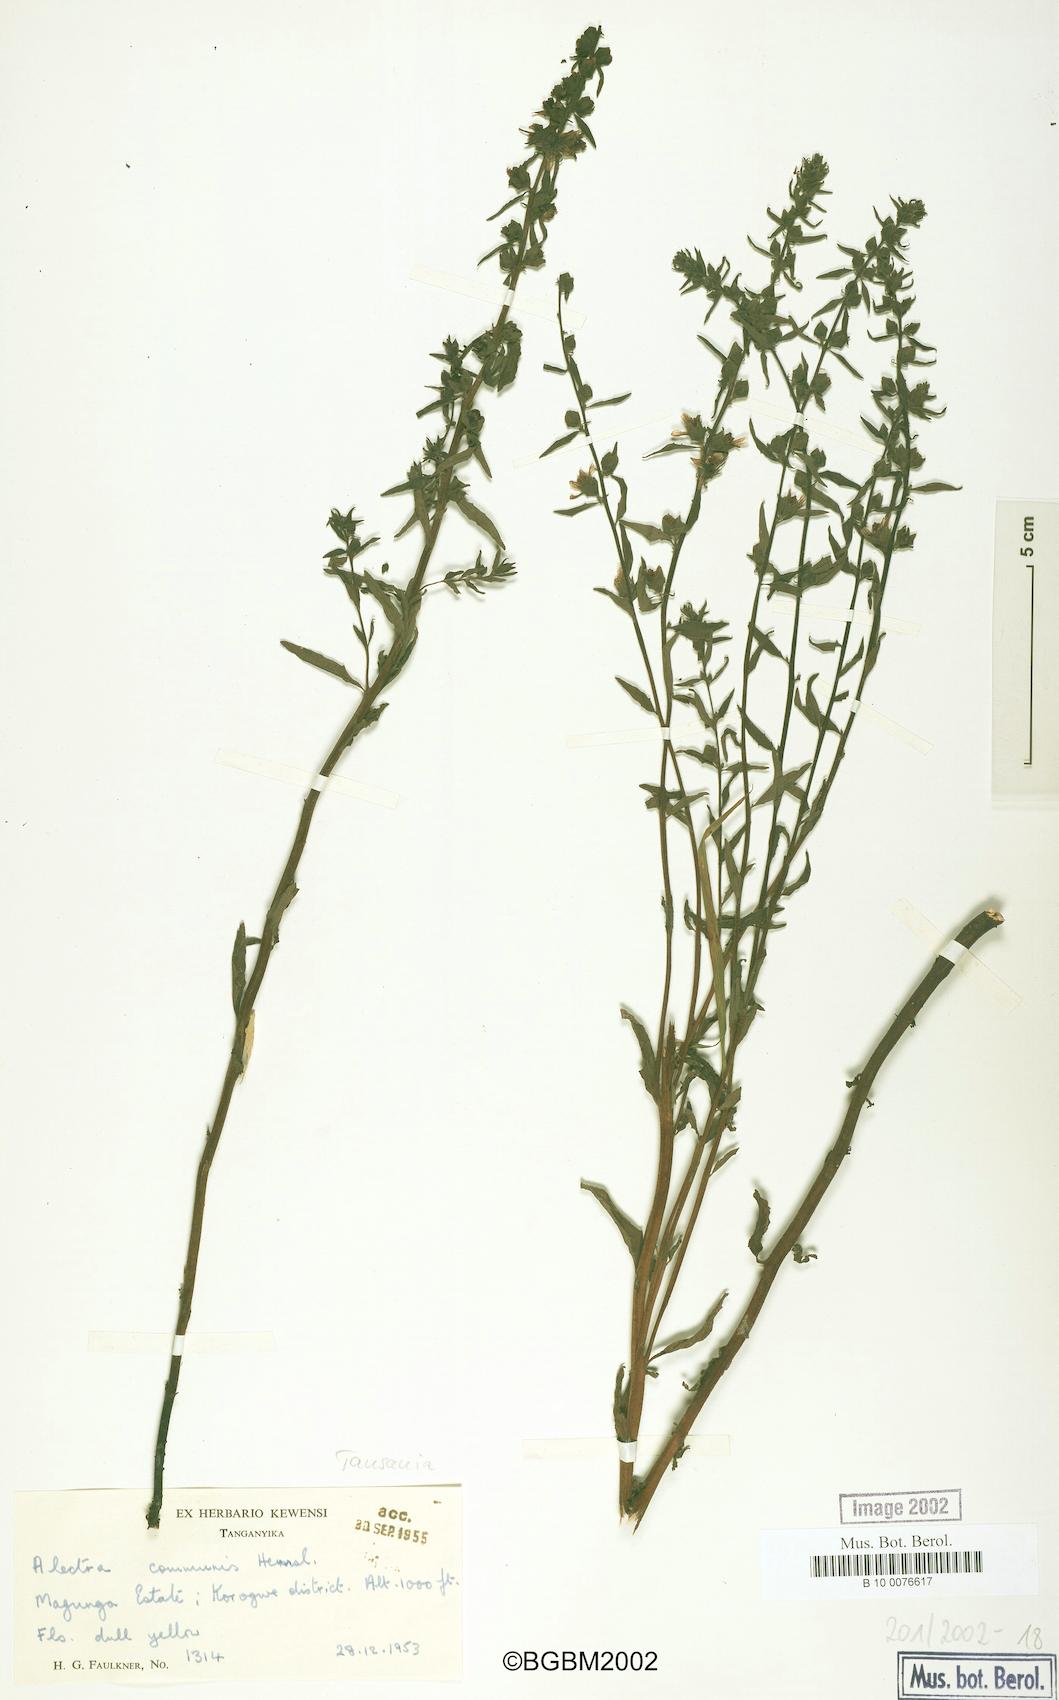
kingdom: Plantae
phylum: Tracheophyta
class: Magnoliopsida
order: Lamiales
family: Orobanchaceae
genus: Alectra
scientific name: Alectra sessiliflora
